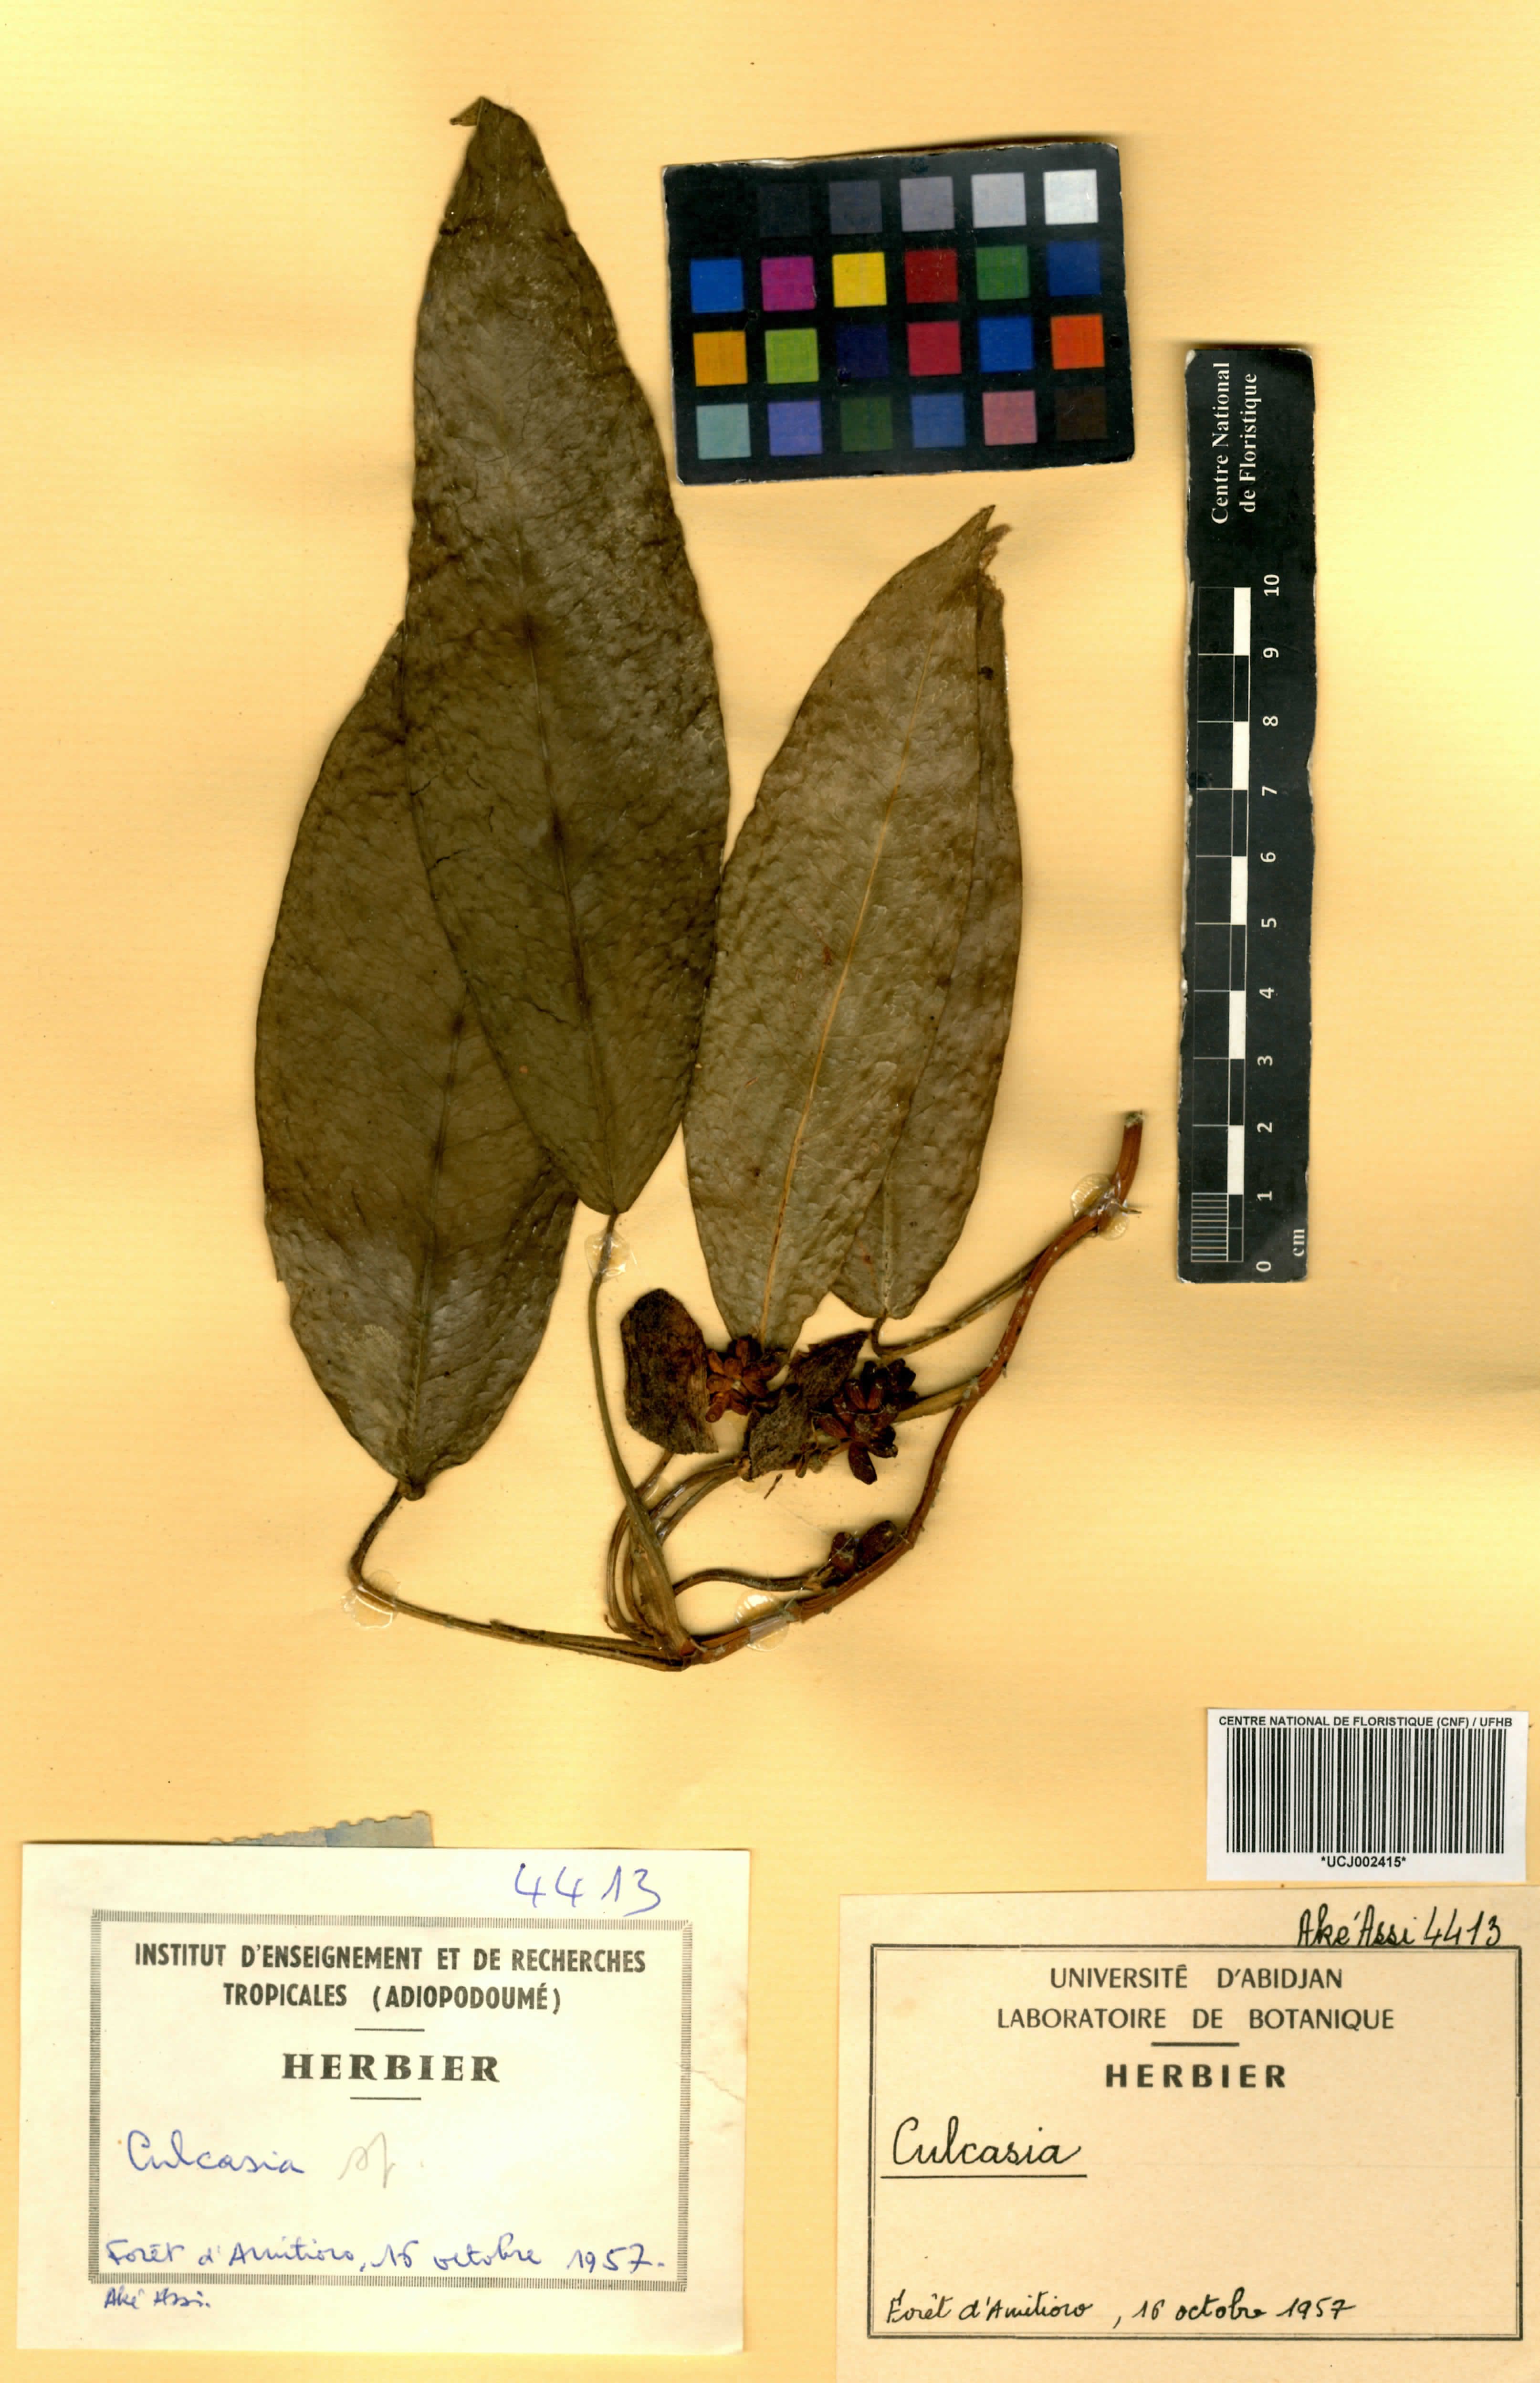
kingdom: Plantae
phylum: Tracheophyta
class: Liliopsida
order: Alismatales
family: Araceae
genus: Culcasia
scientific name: Culcasia
